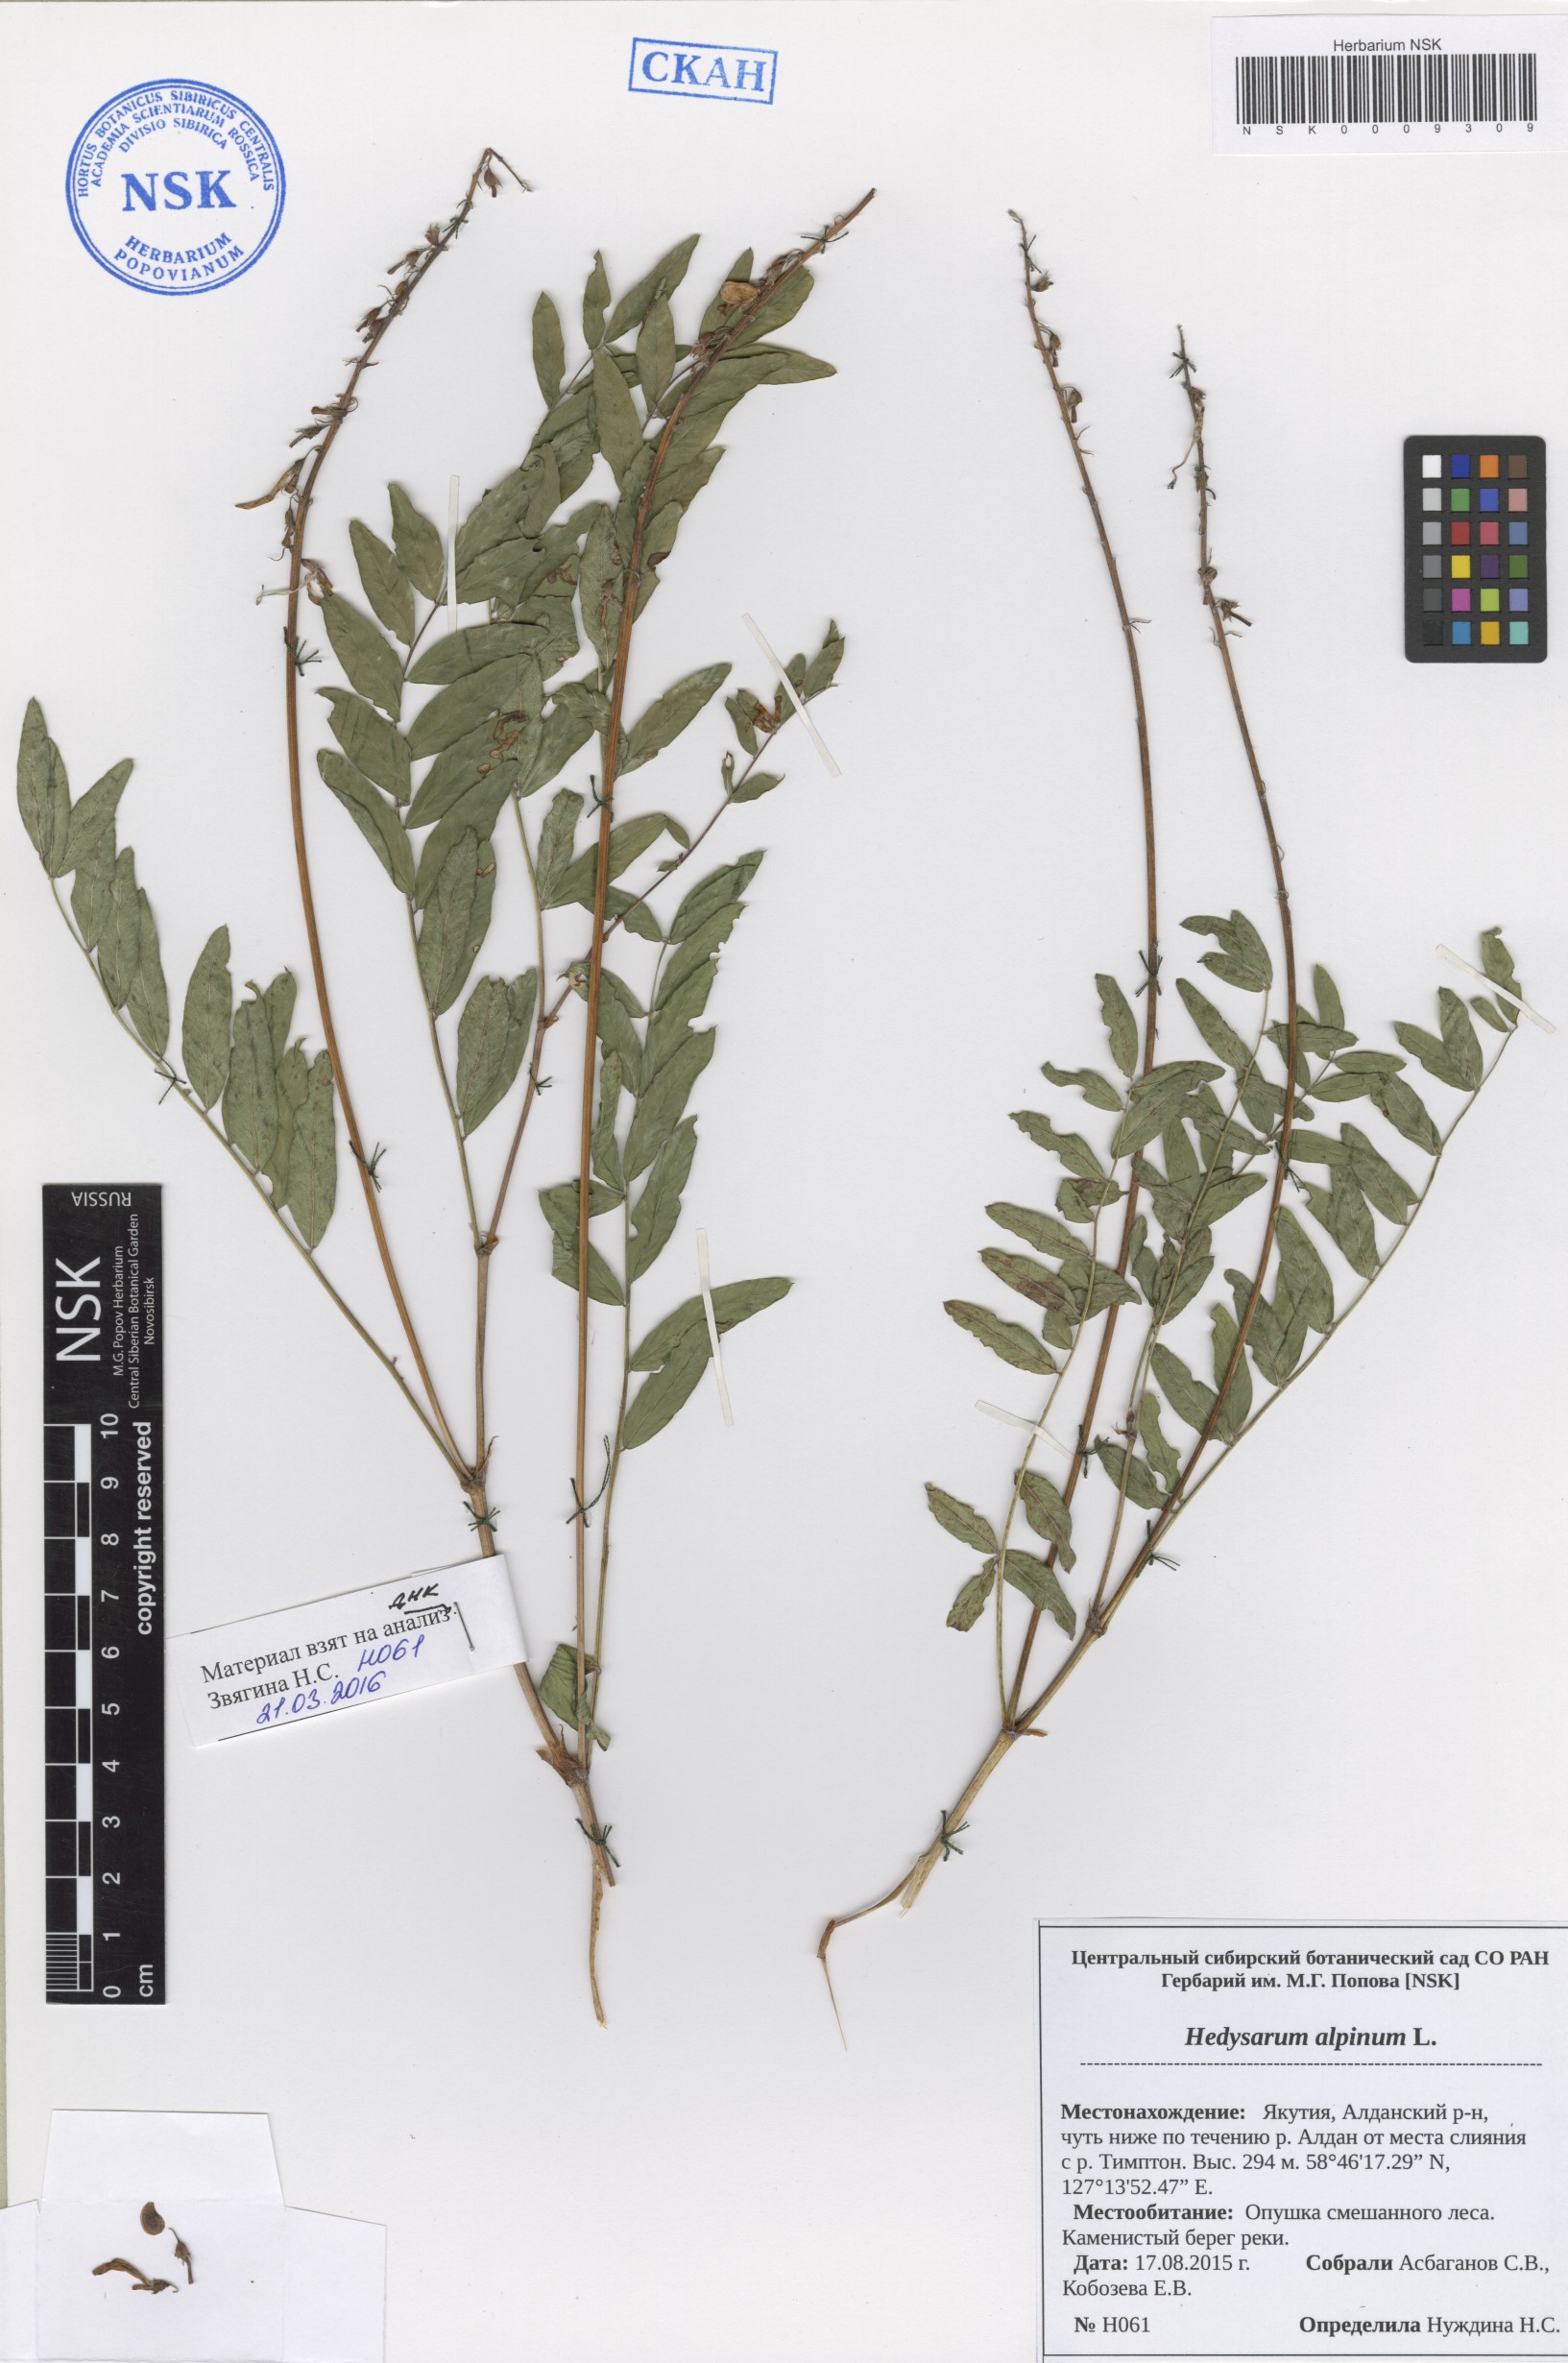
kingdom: Plantae
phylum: Tracheophyta
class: Magnoliopsida
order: Fabales
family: Fabaceae
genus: Hedysarum
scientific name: Hedysarum alpinum
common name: Alpine sweet-vetch
